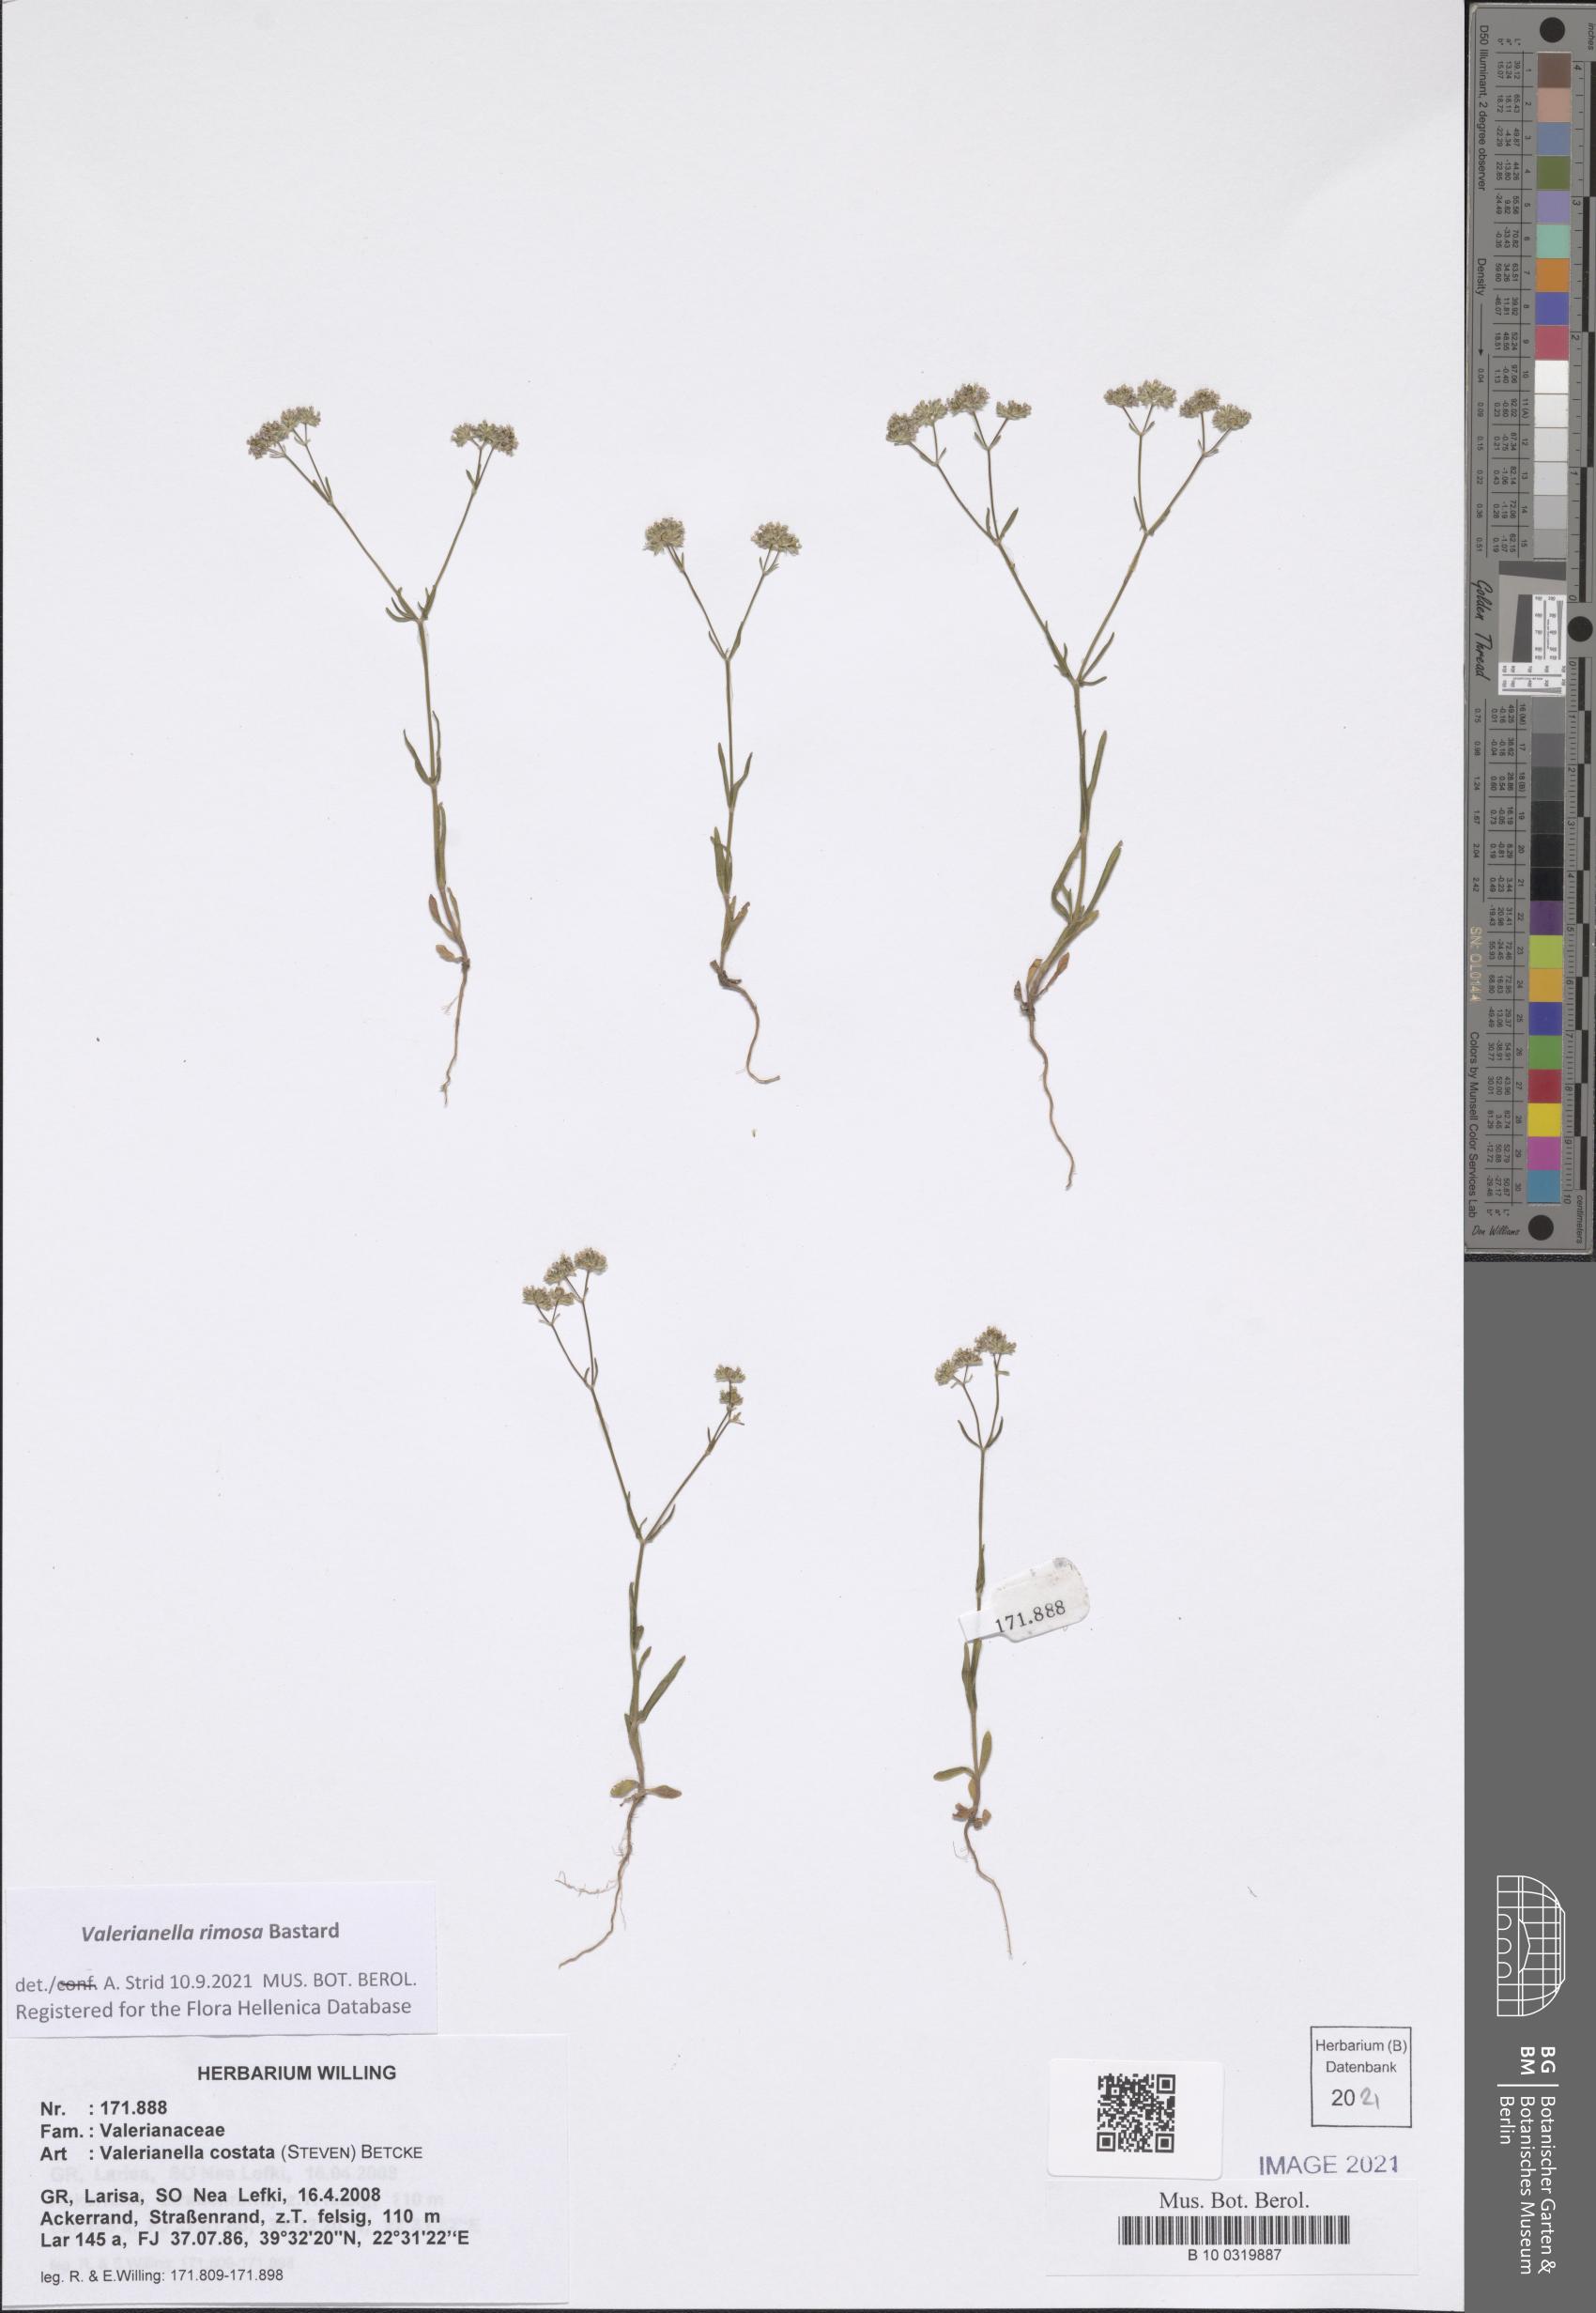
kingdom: Plantae
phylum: Tracheophyta
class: Magnoliopsida
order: Dipsacales
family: Caprifoliaceae
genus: Valerianella
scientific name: Valerianella rimosa
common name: Broad-fruited cornsalad
